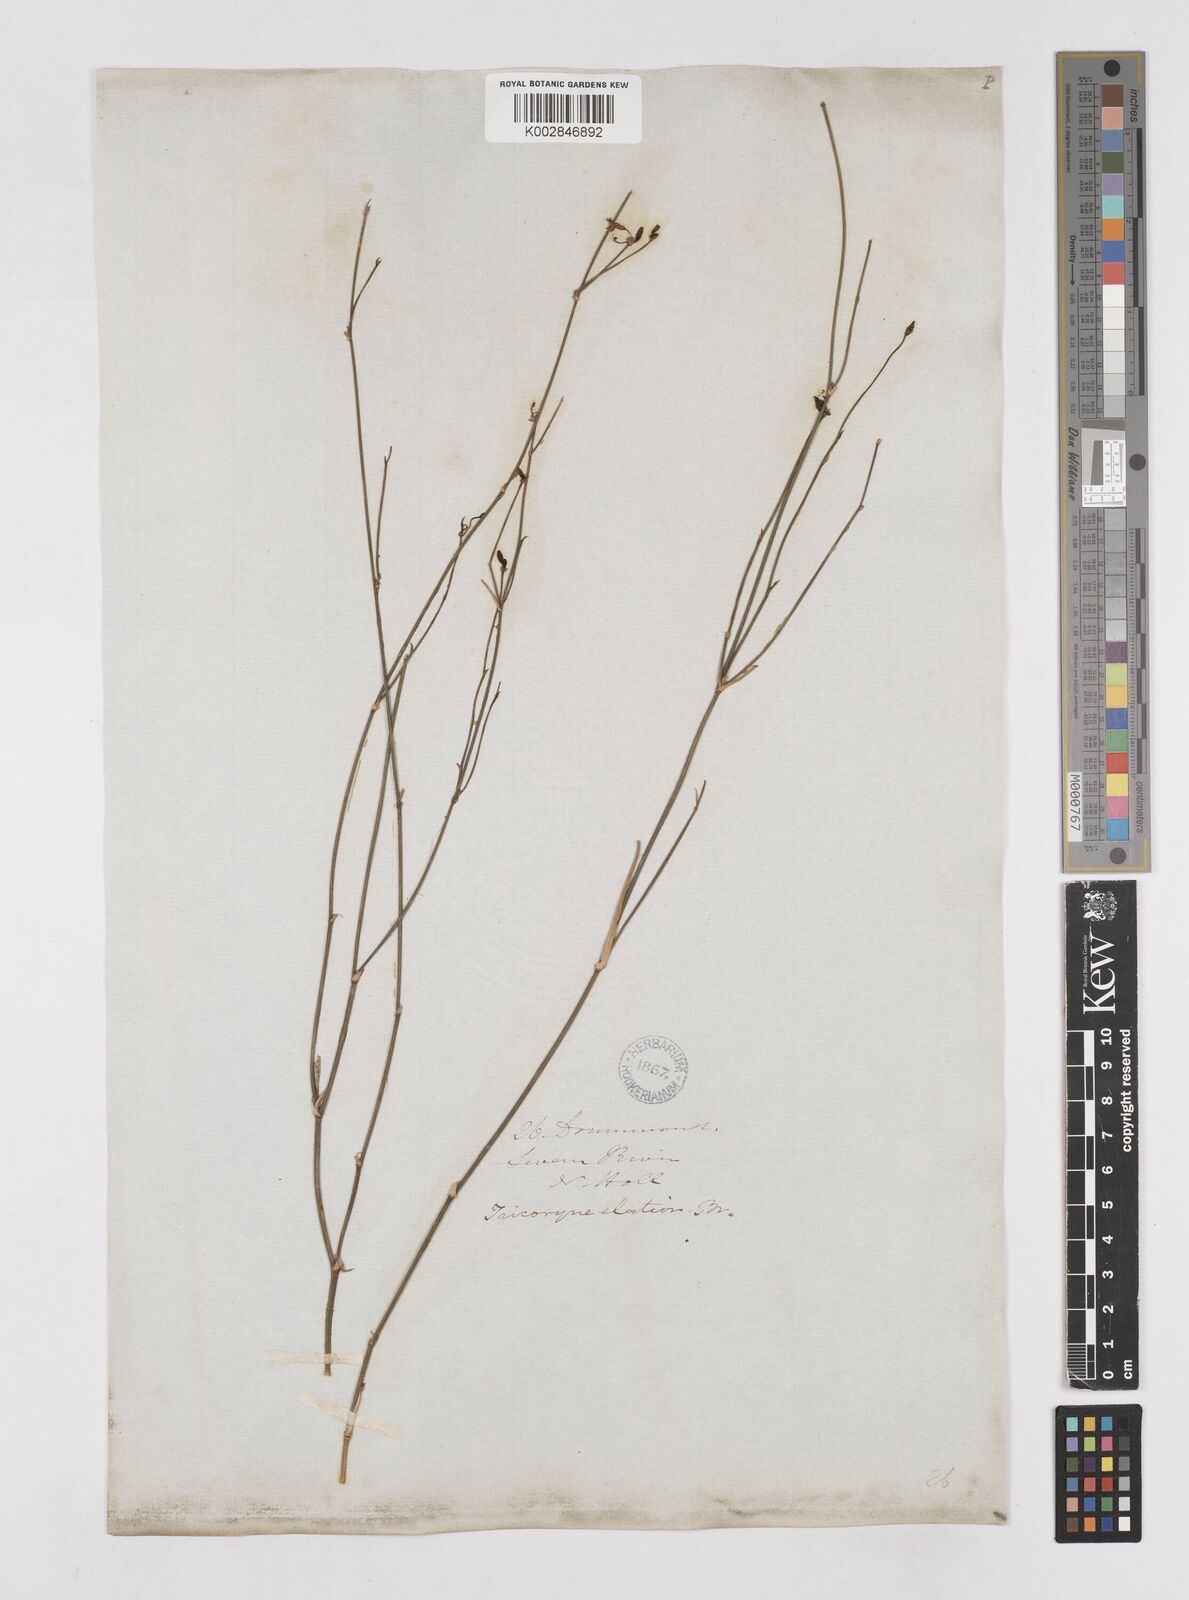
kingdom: Plantae
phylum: Tracheophyta
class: Liliopsida
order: Asparagales
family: Asphodelaceae
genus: Tricoryne
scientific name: Tricoryne elatior
